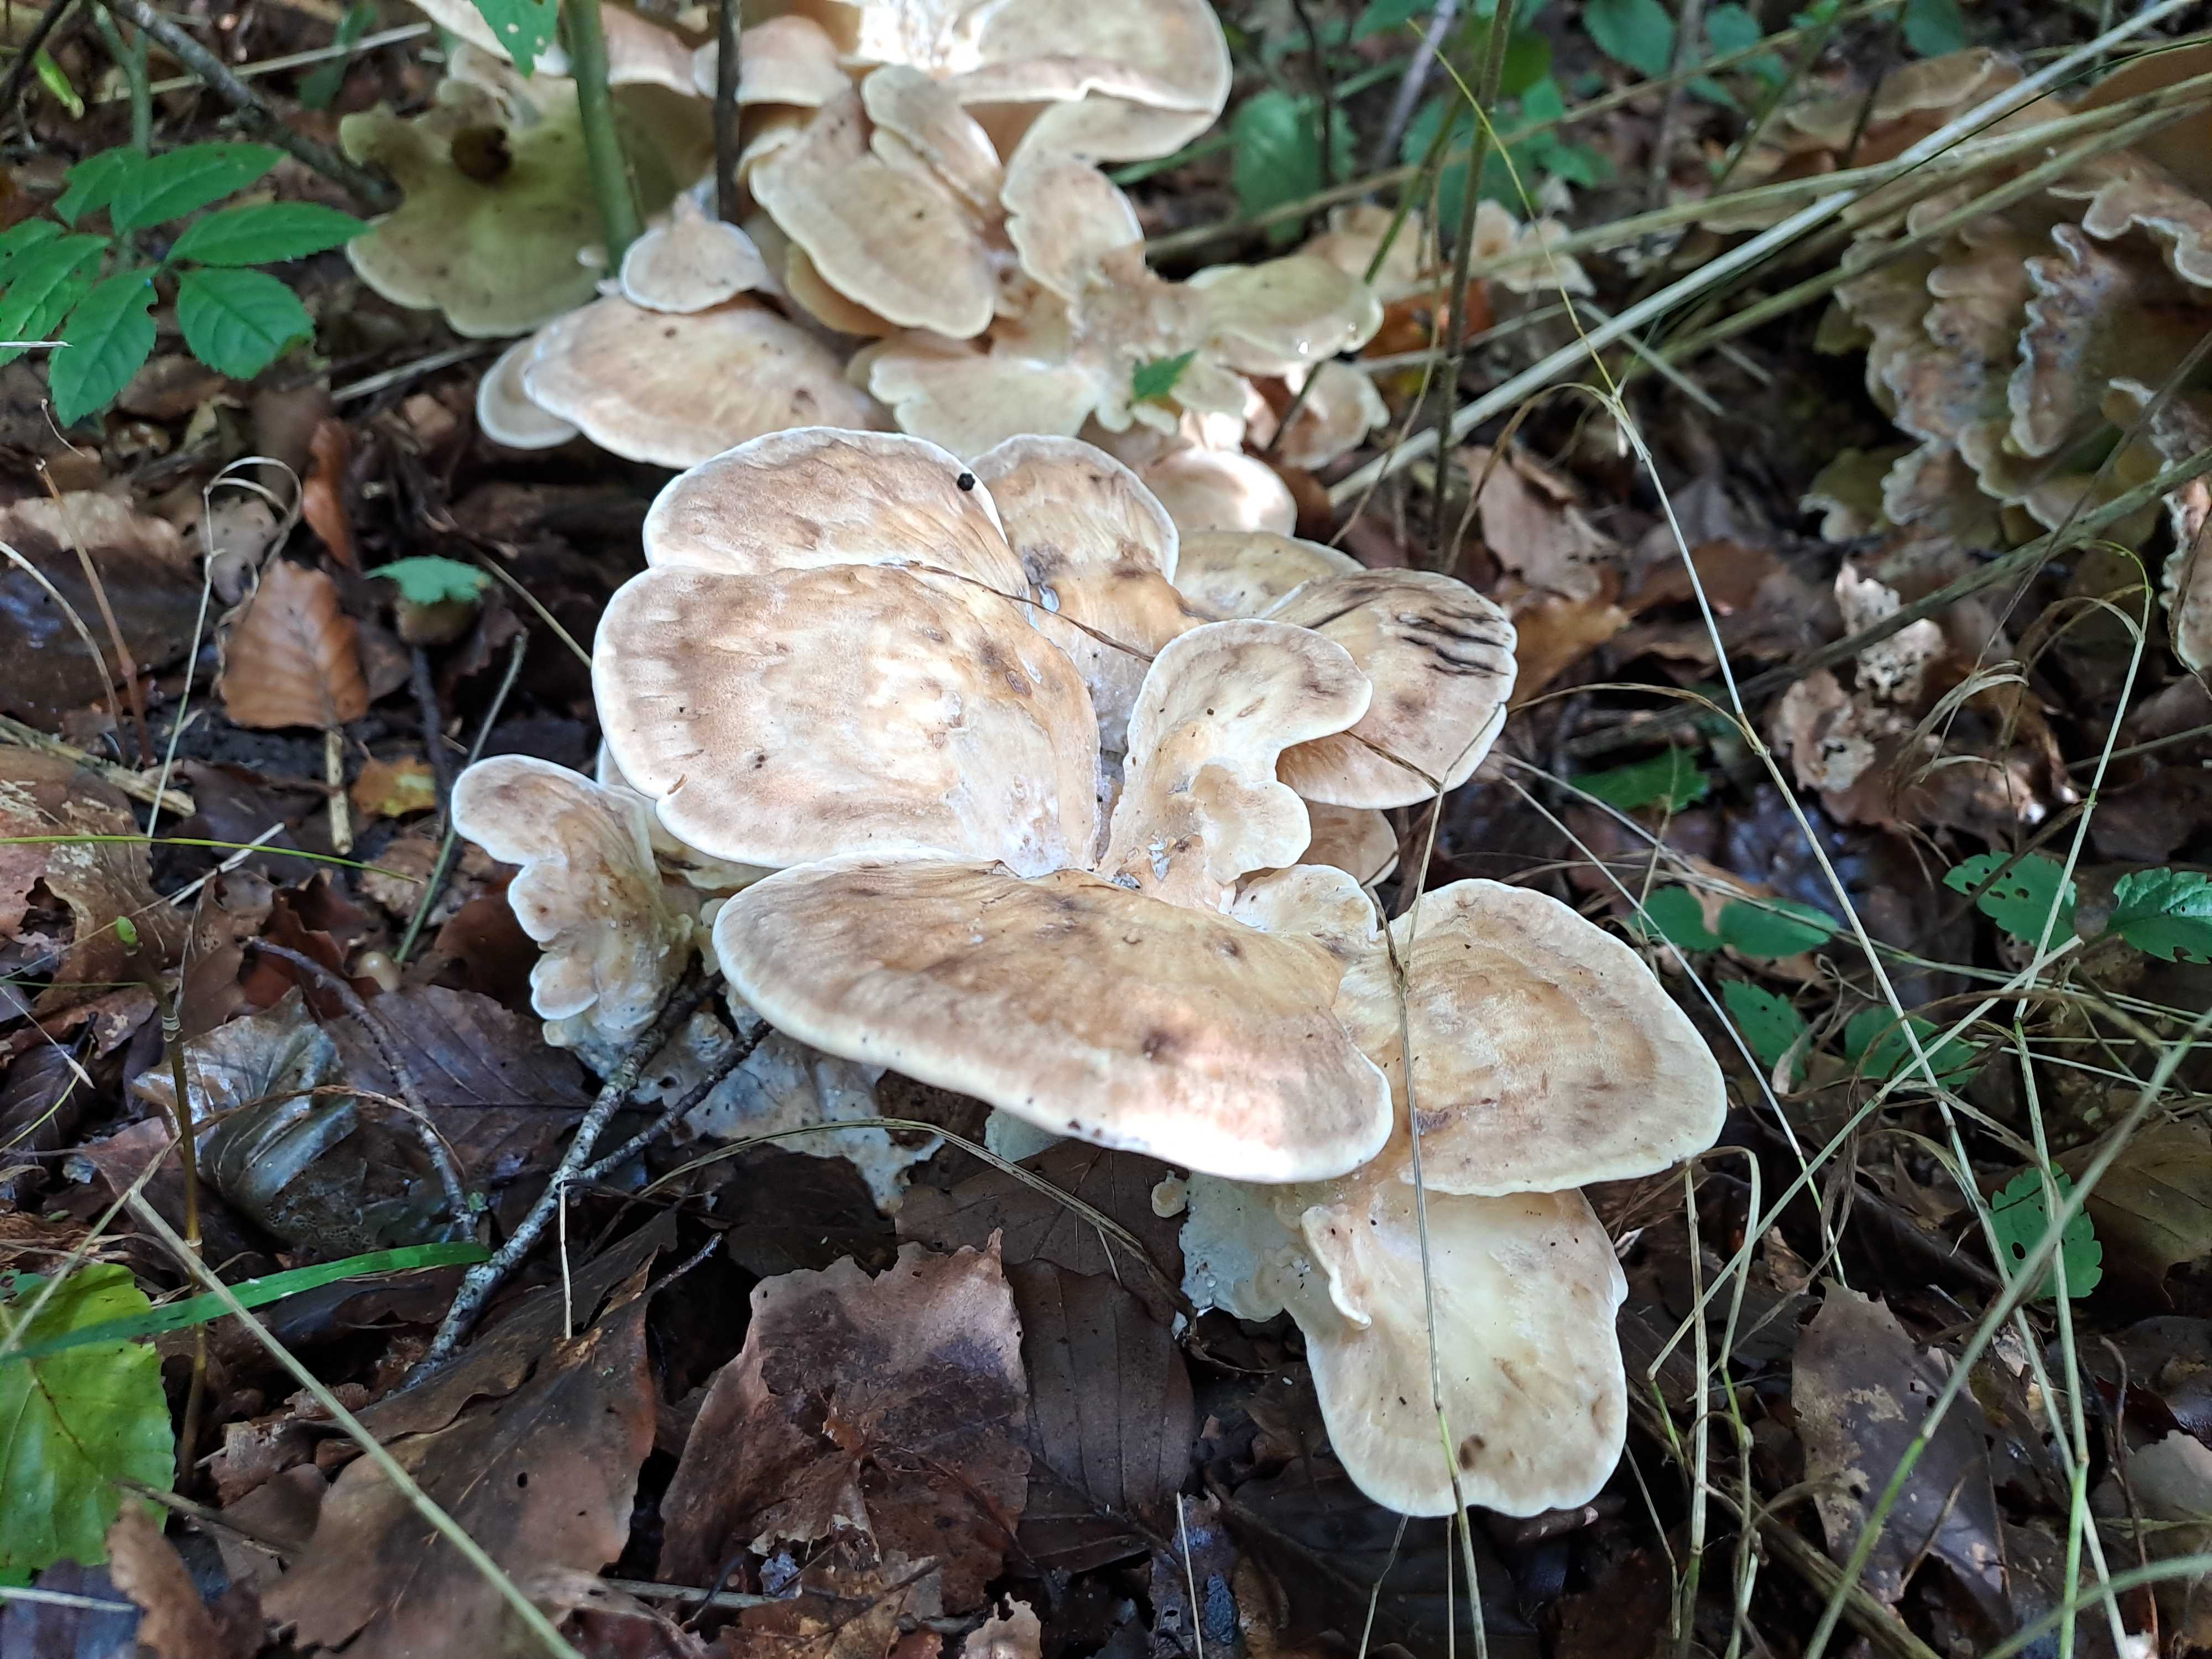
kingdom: Fungi
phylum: Basidiomycota
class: Agaricomycetes
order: Polyporales
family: Meripilaceae
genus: Meripilus
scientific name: Meripilus giganteus
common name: kæmpeporesvamp
